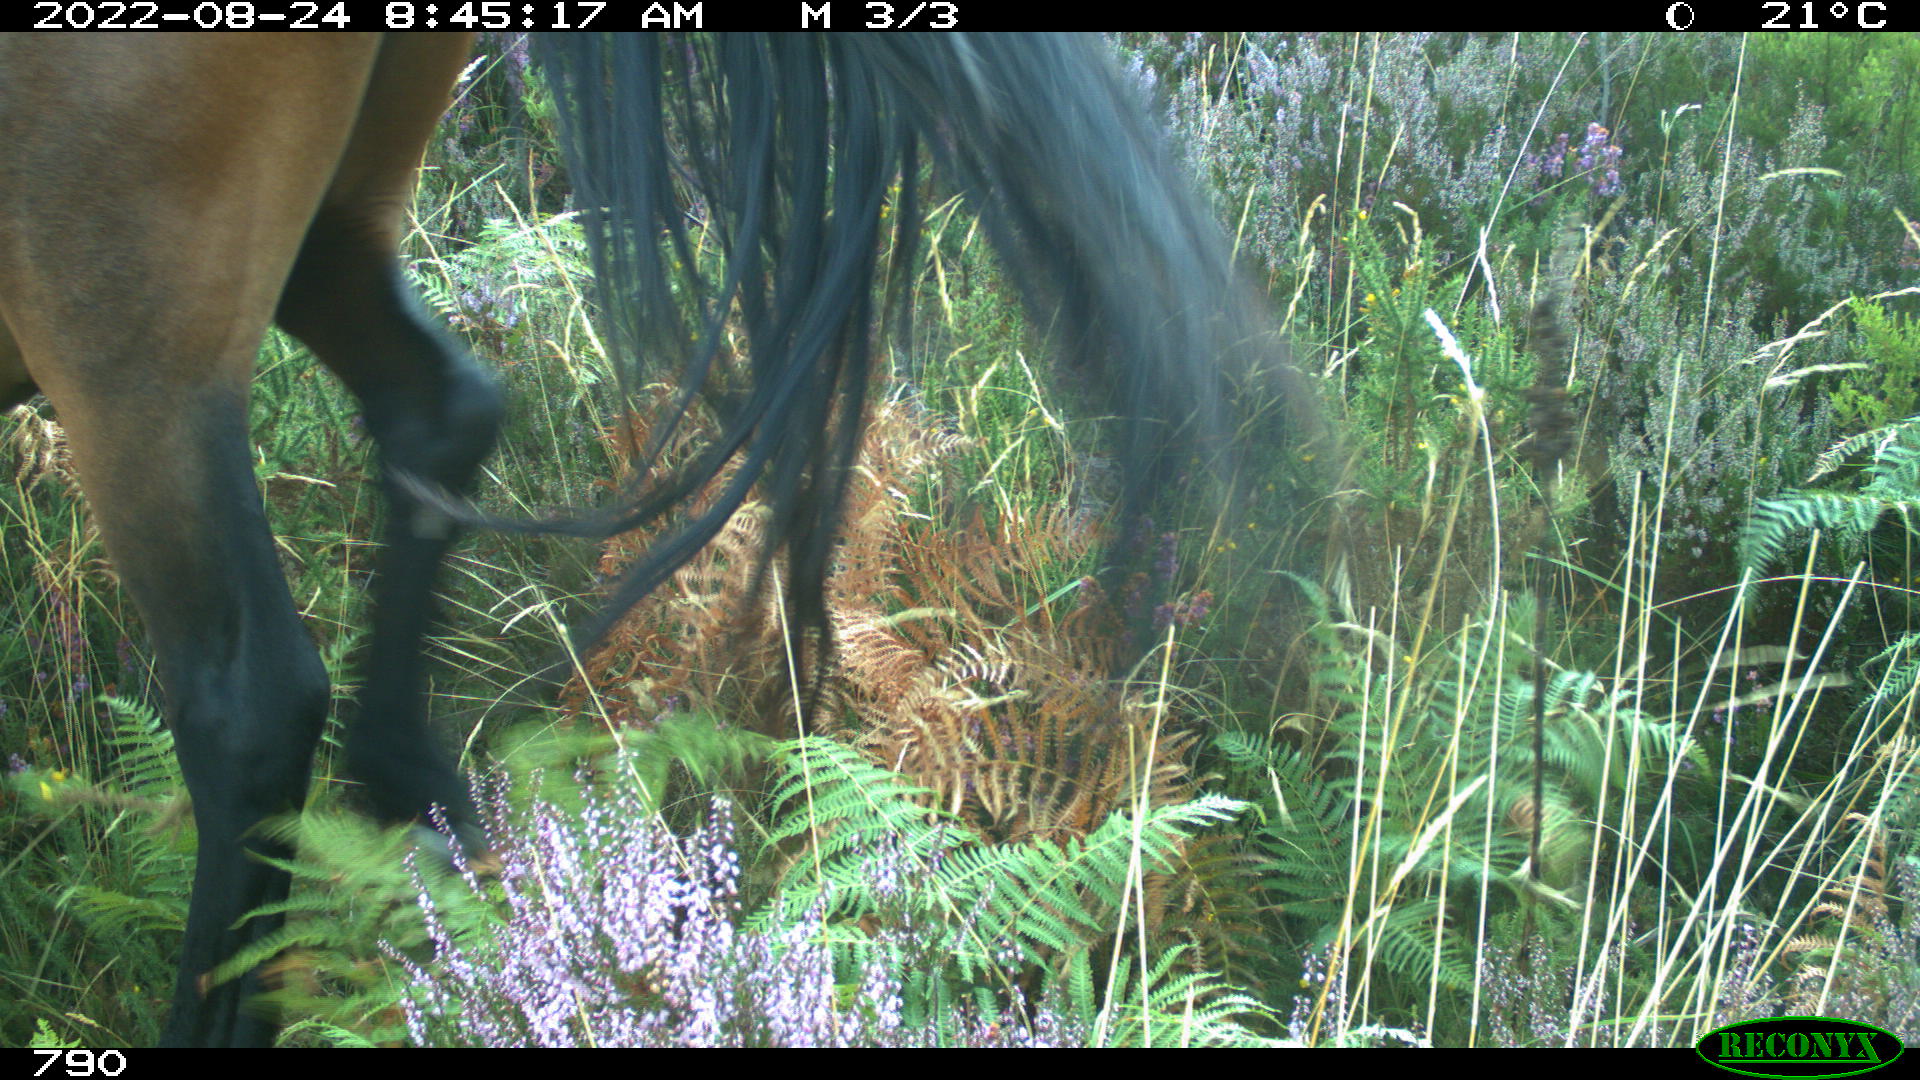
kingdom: Animalia
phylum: Chordata
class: Mammalia
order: Perissodactyla
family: Equidae
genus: Equus
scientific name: Equus caballus
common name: Horse
